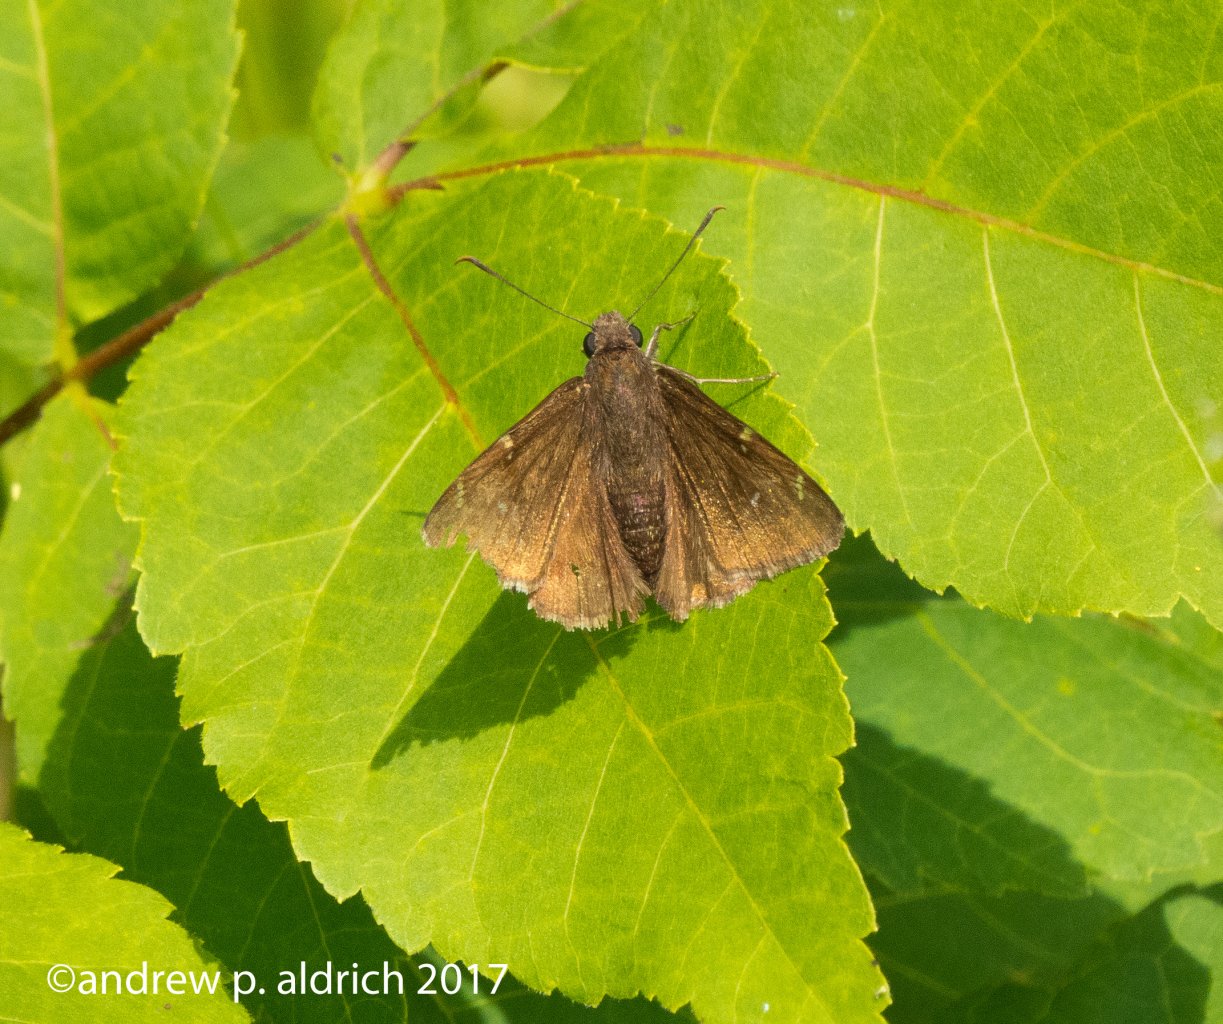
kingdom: Animalia
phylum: Arthropoda
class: Insecta
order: Lepidoptera
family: Hesperiidae
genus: Autochton
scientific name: Autochton
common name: Northern Cloudywing
